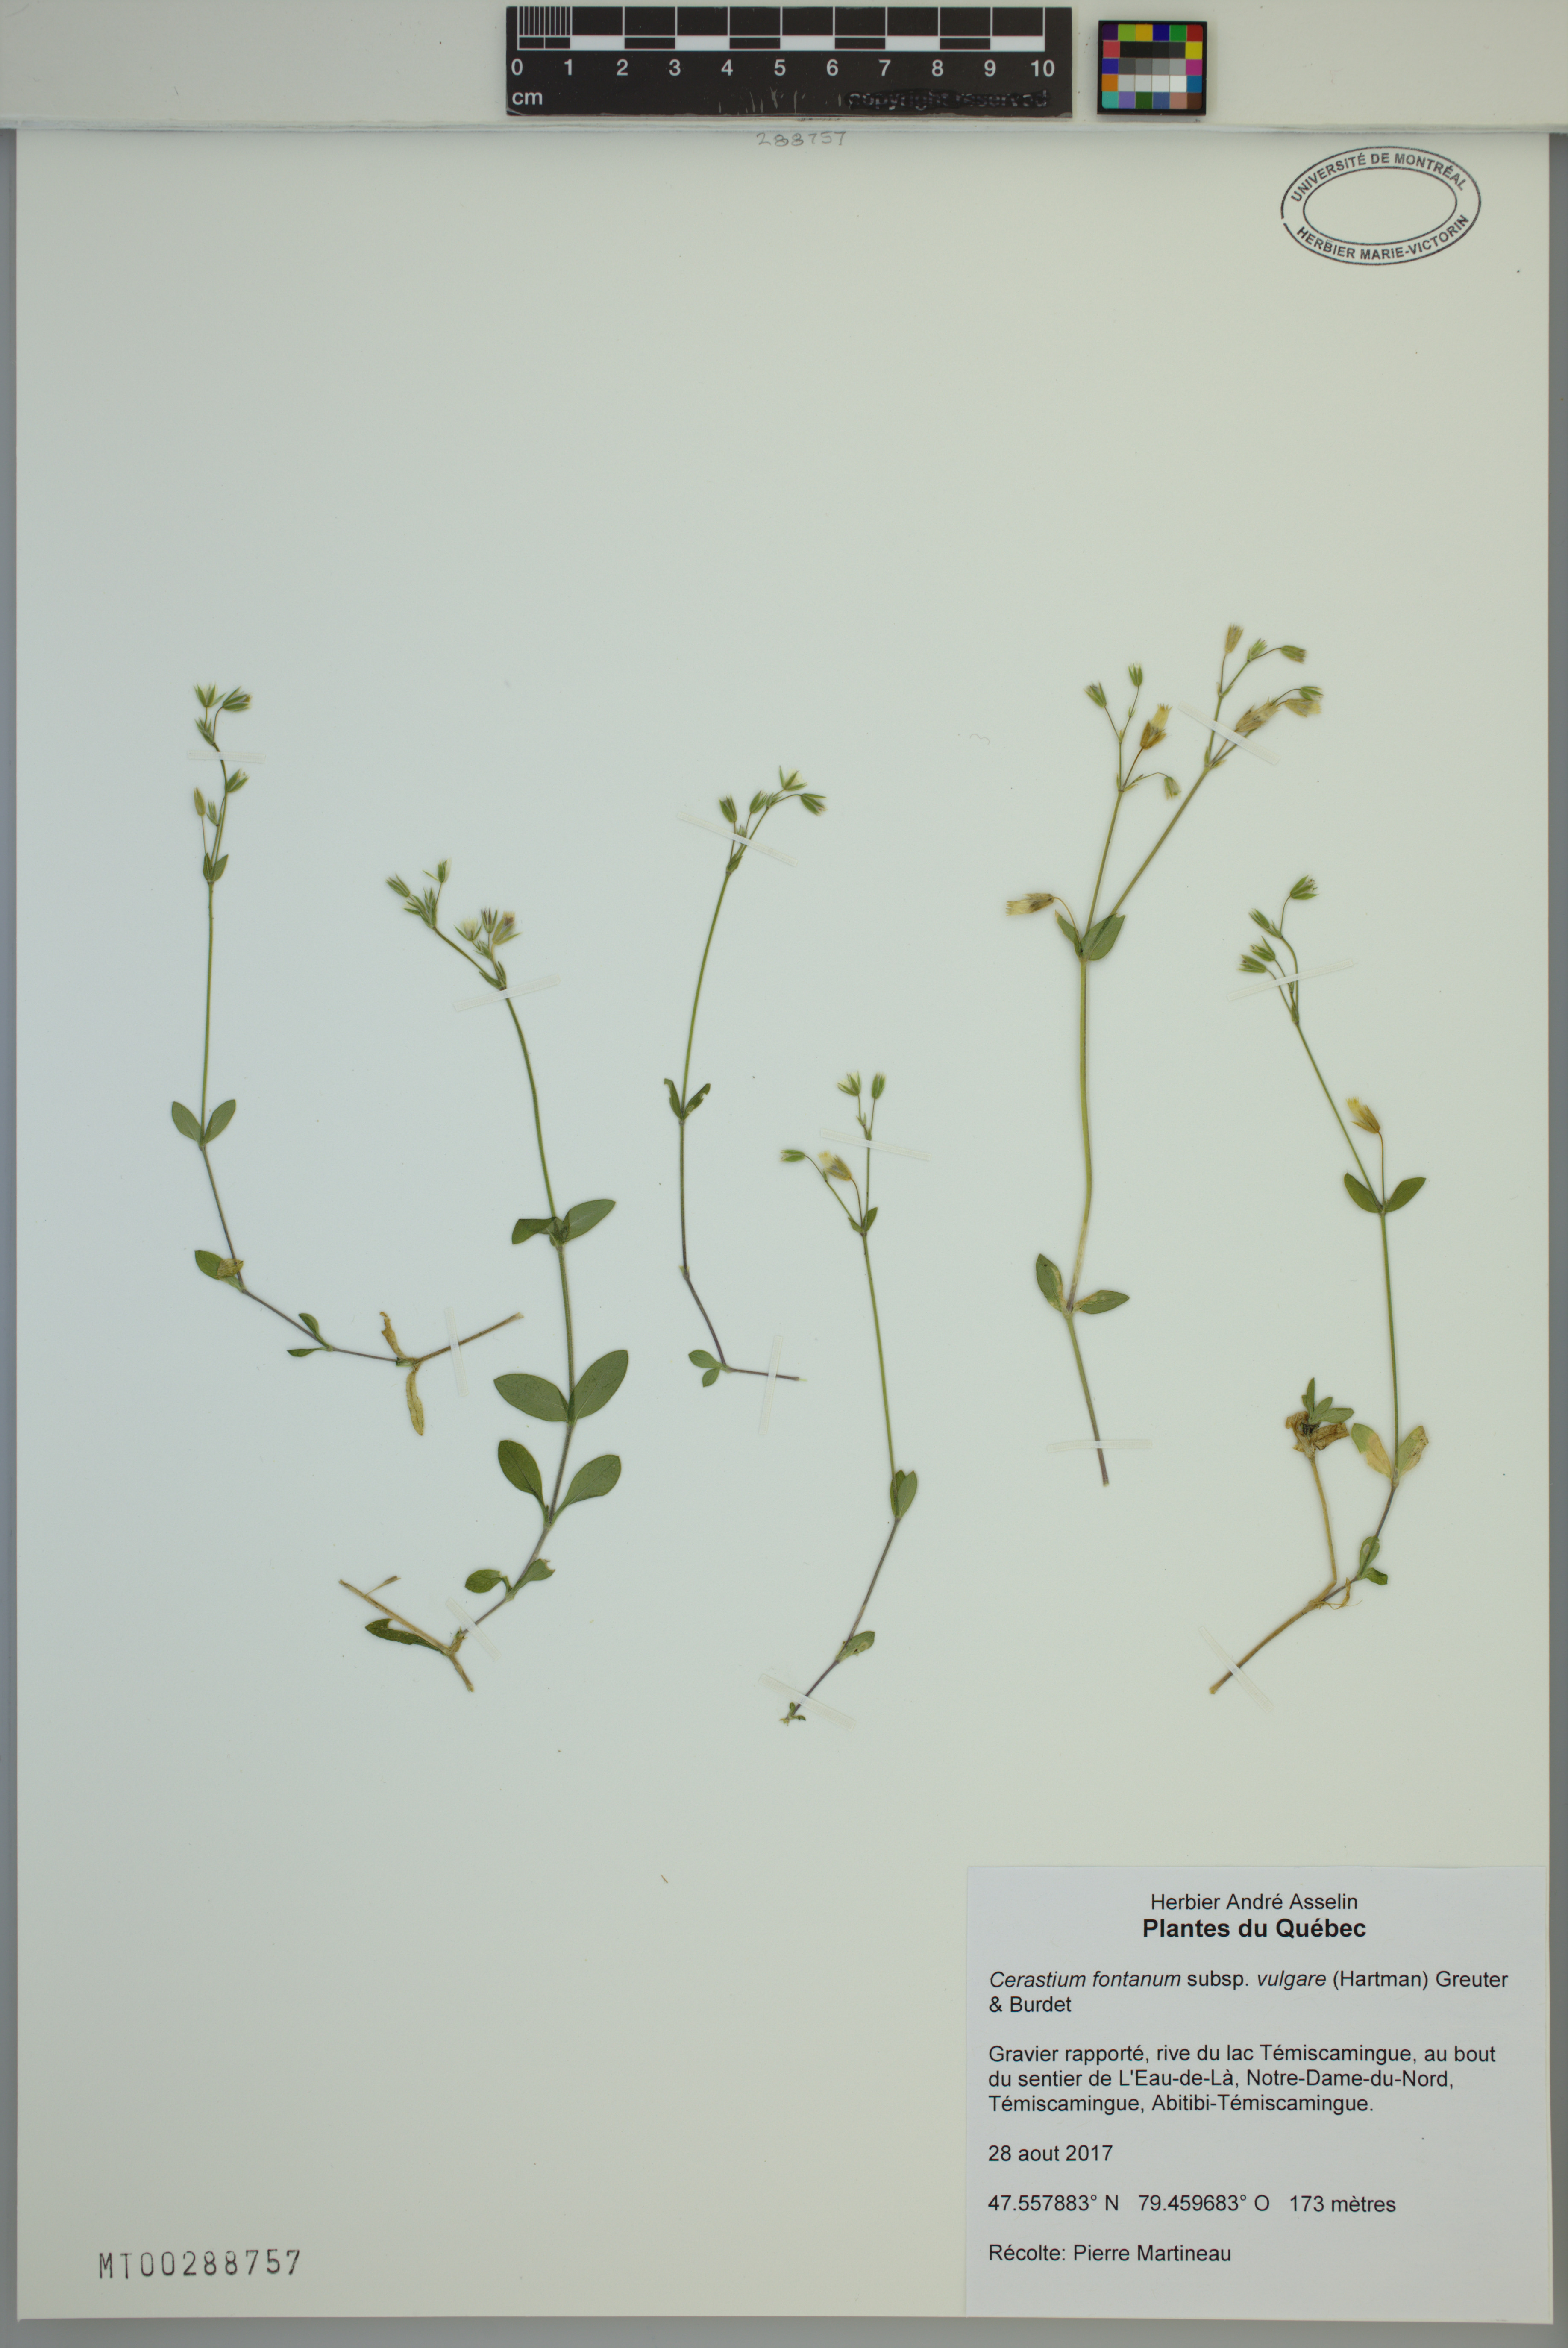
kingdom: Plantae
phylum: Tracheophyta
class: Magnoliopsida
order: Caryophyllales
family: Caryophyllaceae
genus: Cerastium
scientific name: Cerastium holosteoides
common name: Big chickweed
